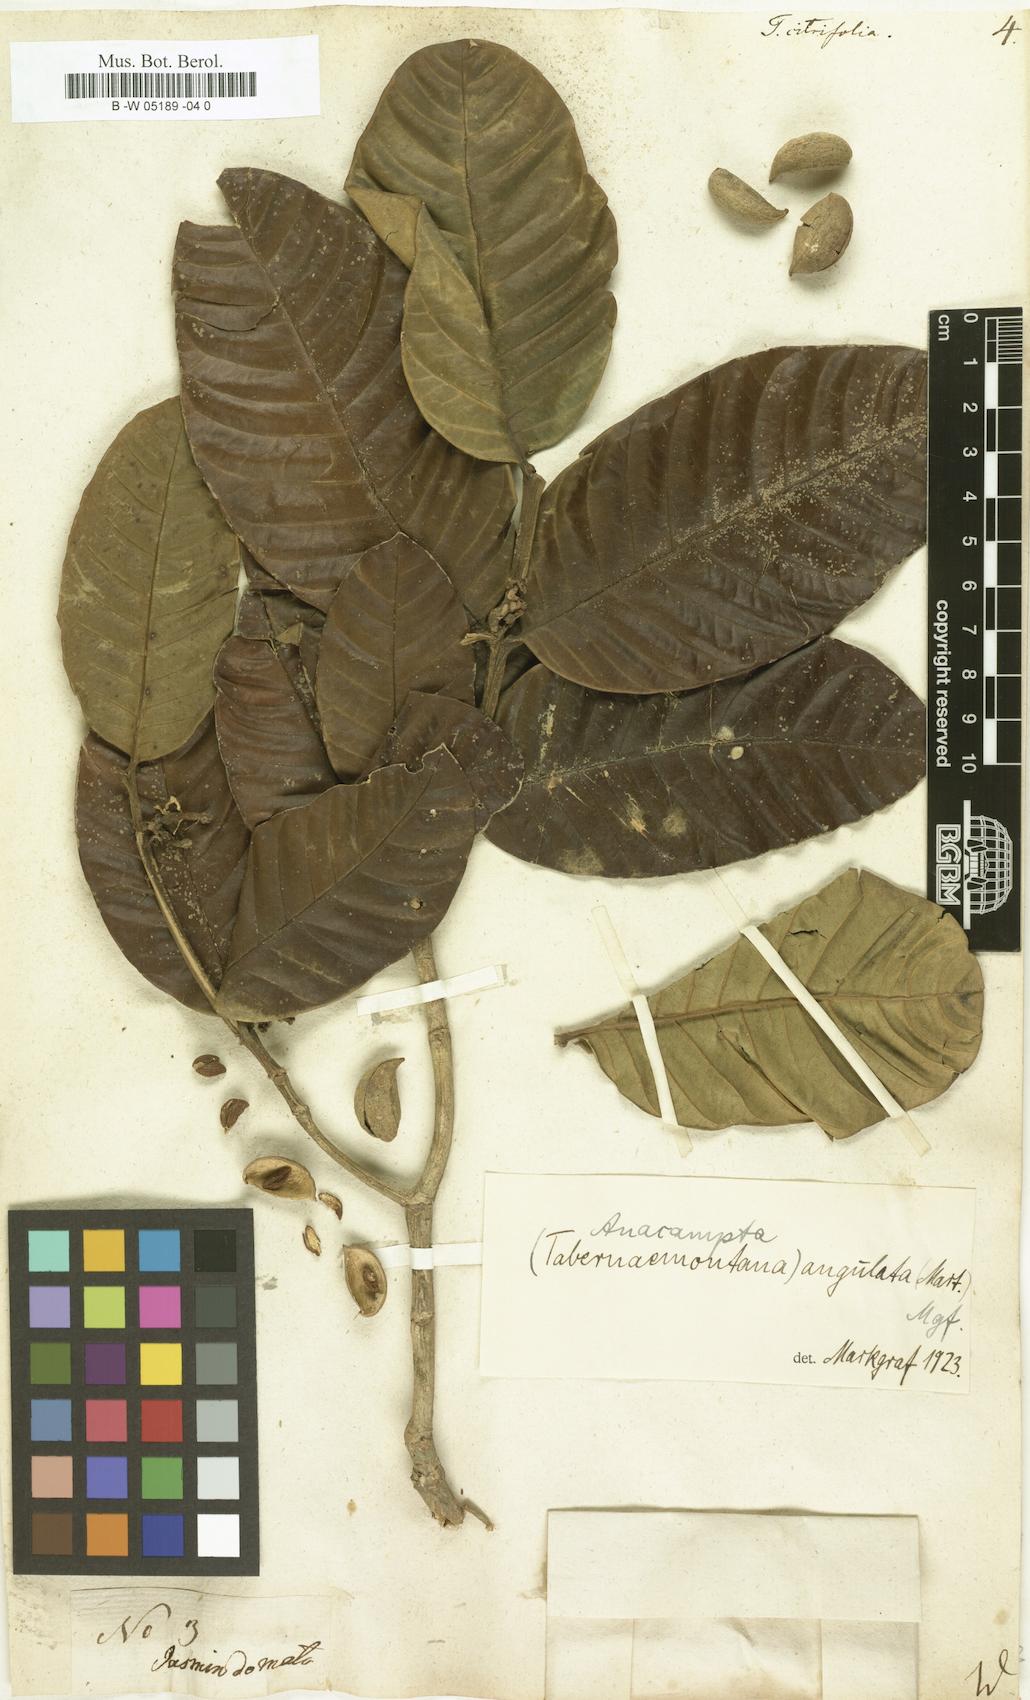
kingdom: Plantae
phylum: Tracheophyta
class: Magnoliopsida
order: Gentianales
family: Apocynaceae
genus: Tabernaemontana
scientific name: Tabernaemontana citrifolia
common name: Milky tree
